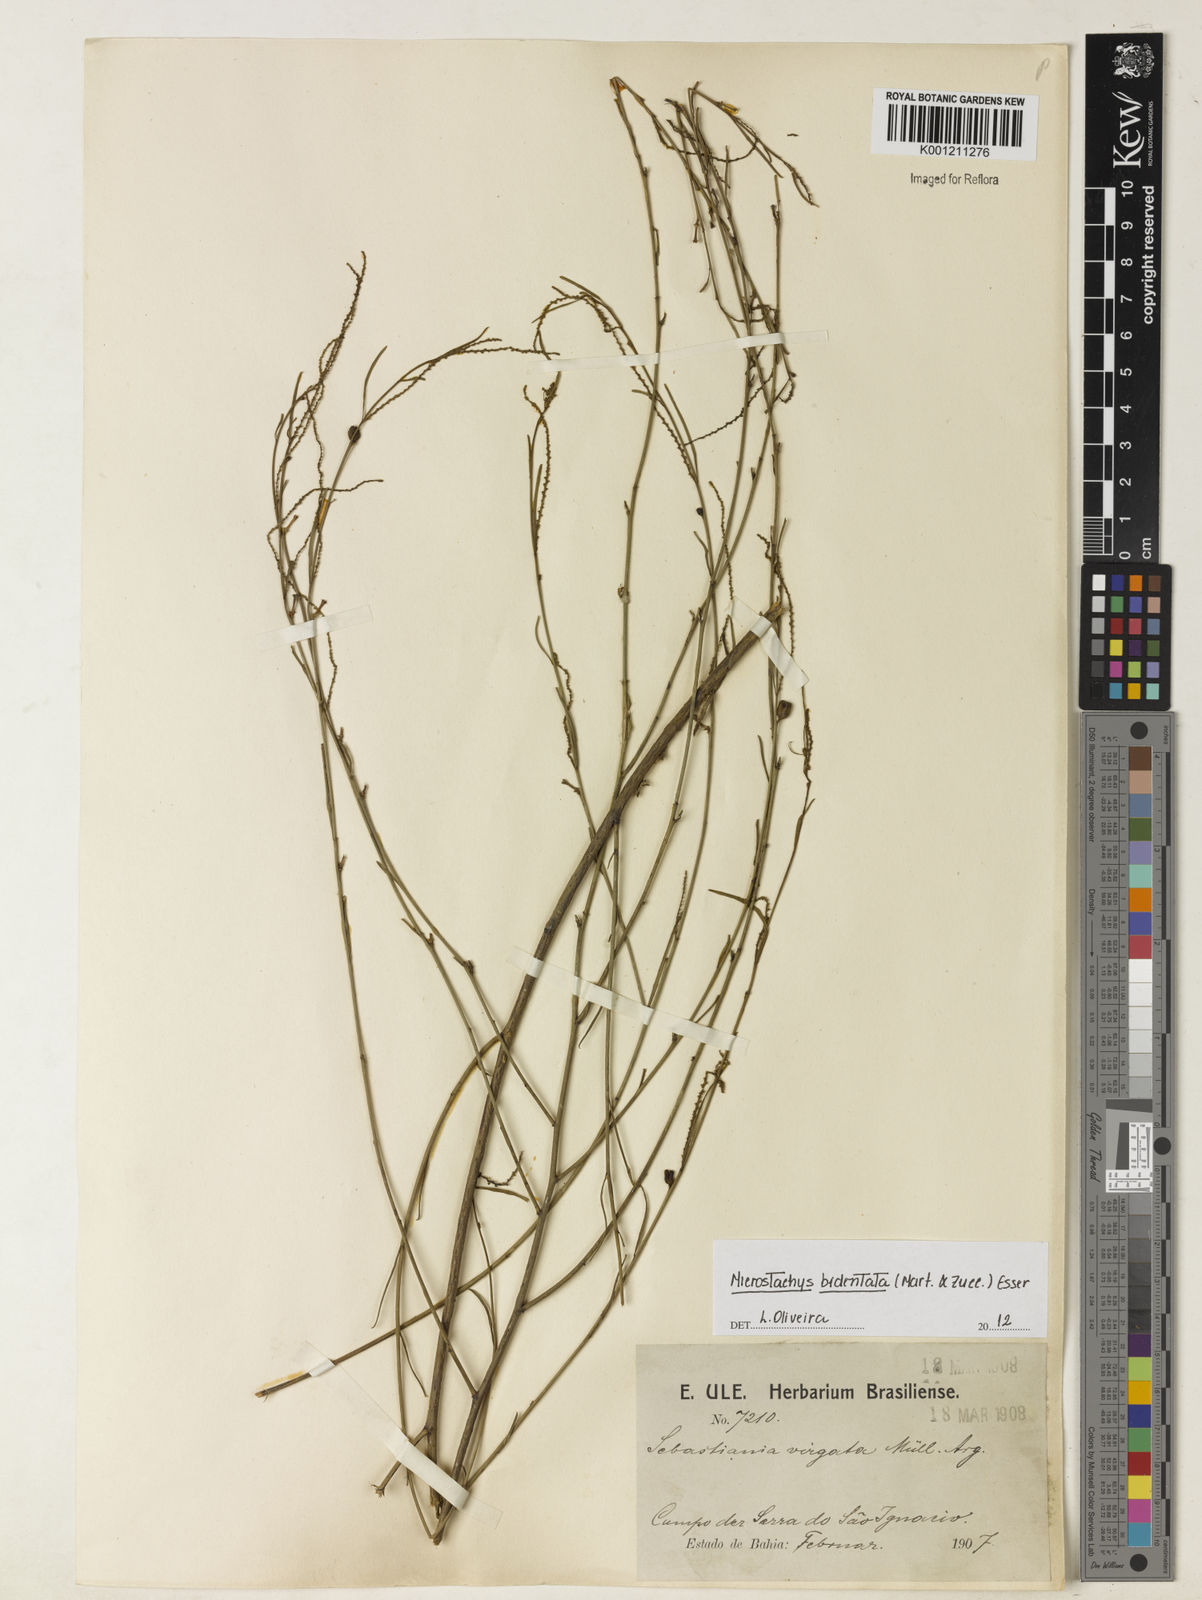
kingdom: Plantae
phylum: Tracheophyta
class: Magnoliopsida
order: Malpighiales
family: Euphorbiaceae
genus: Microstachys
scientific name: Microstachys bidentata
